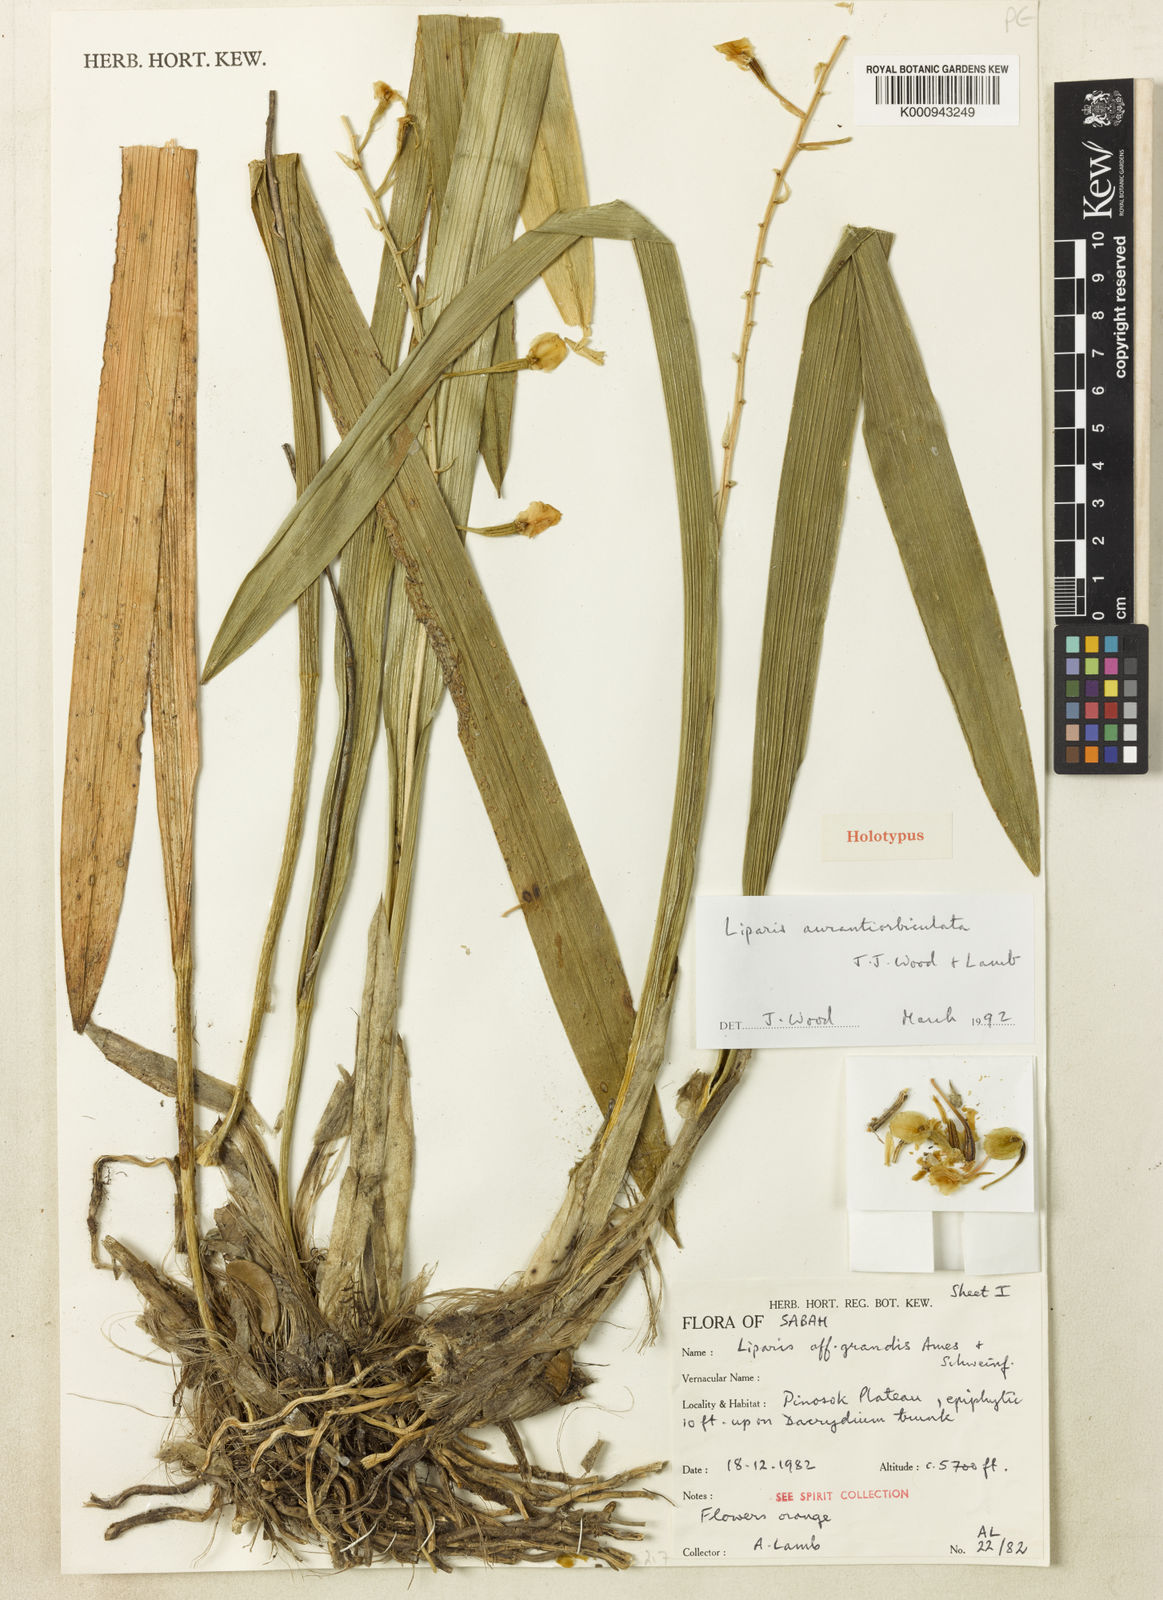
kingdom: Plantae
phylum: Tracheophyta
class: Liliopsida
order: Asparagales
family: Orchidaceae
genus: Liparis
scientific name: Liparis aurantiorbiculata
